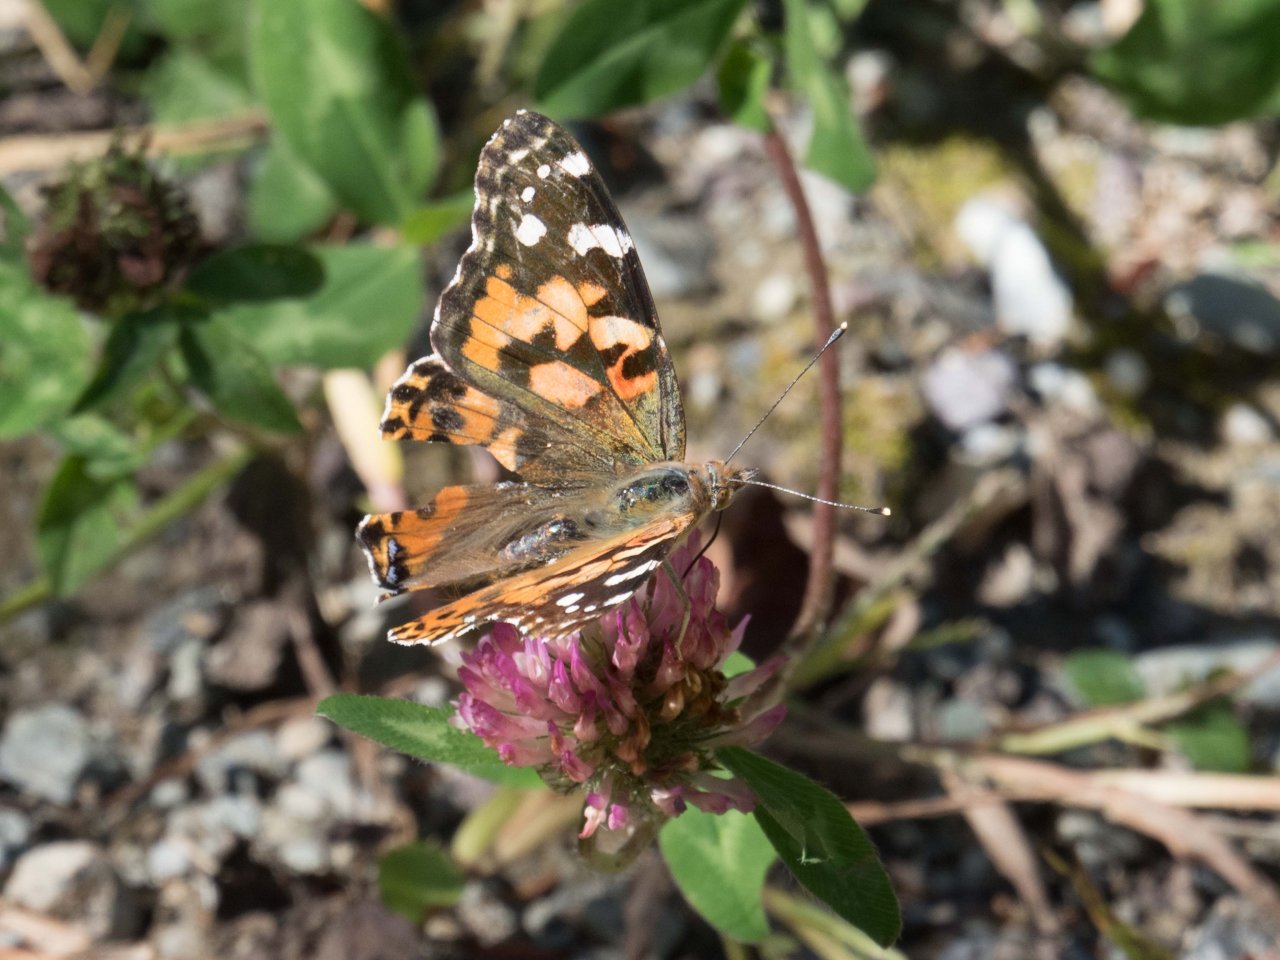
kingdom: Animalia
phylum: Arthropoda
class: Insecta
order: Lepidoptera
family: Nymphalidae
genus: Vanessa
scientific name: Vanessa cardui
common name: Painted Lady
